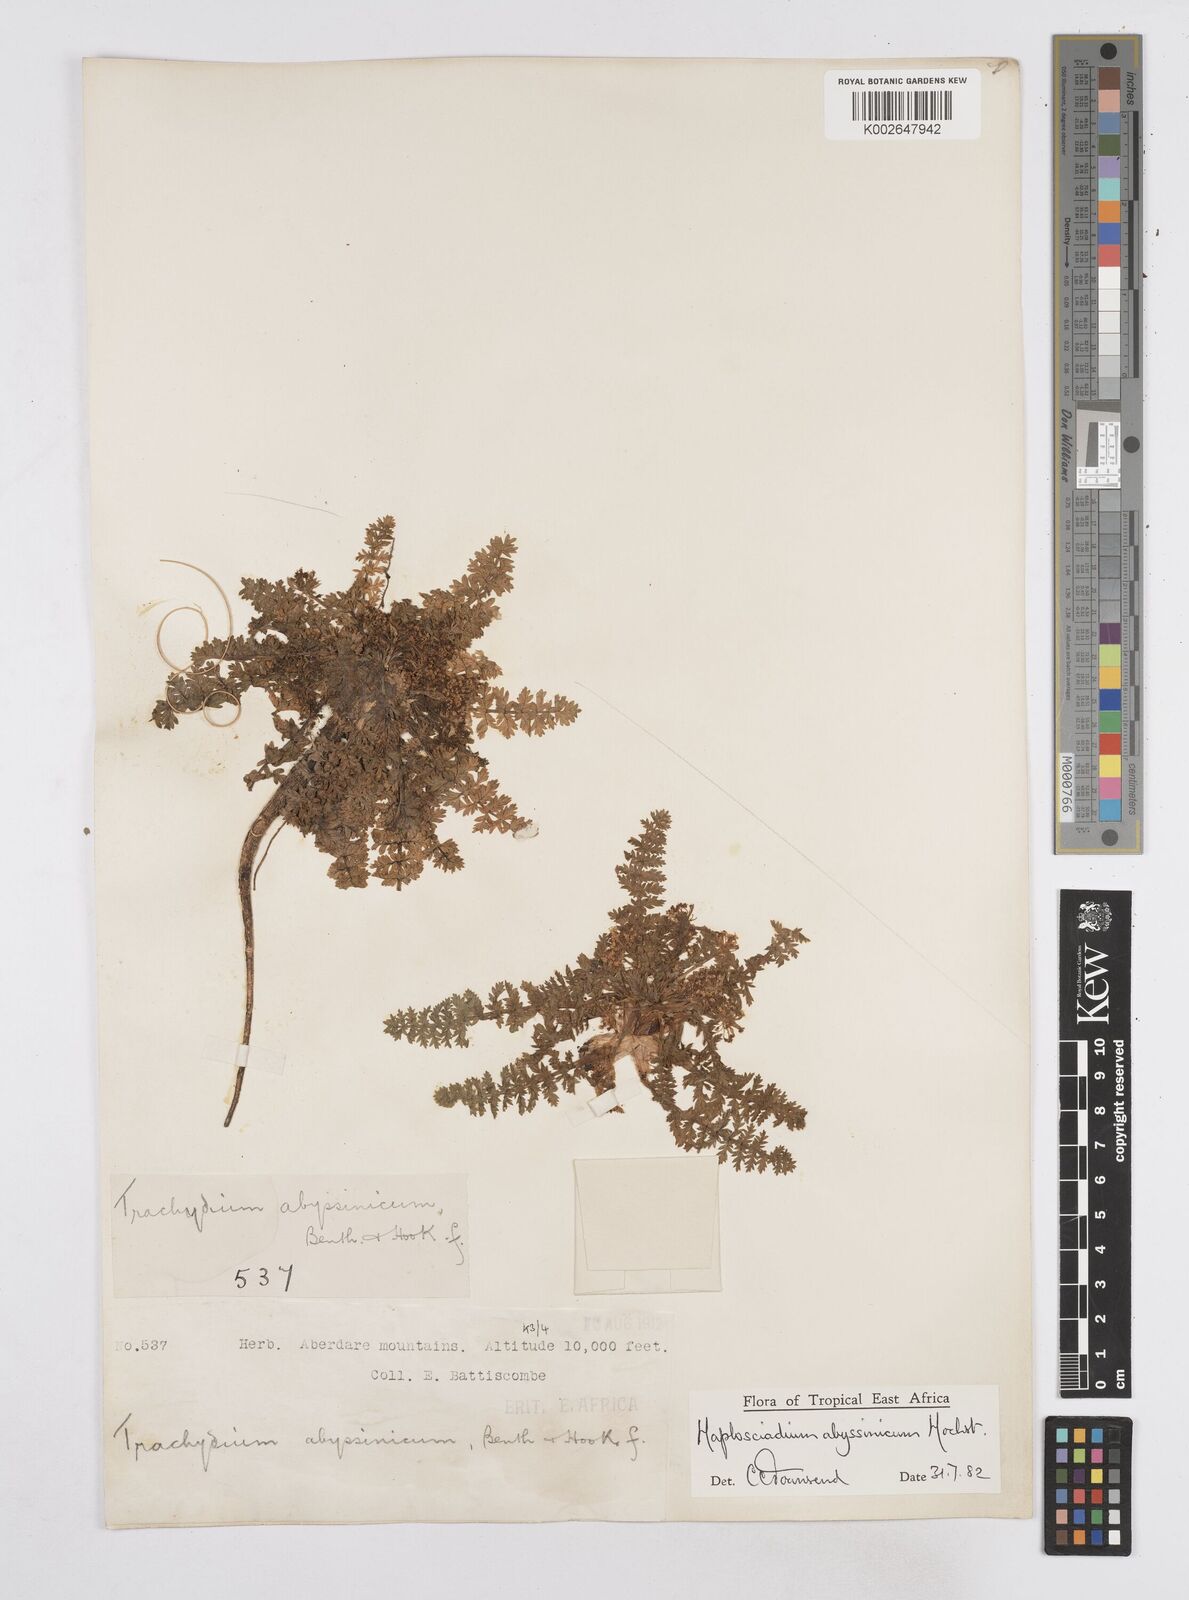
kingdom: Plantae
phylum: Tracheophyta
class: Magnoliopsida
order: Apiales
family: Apiaceae
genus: Haplosciadium
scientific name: Haplosciadium abyssinicum
